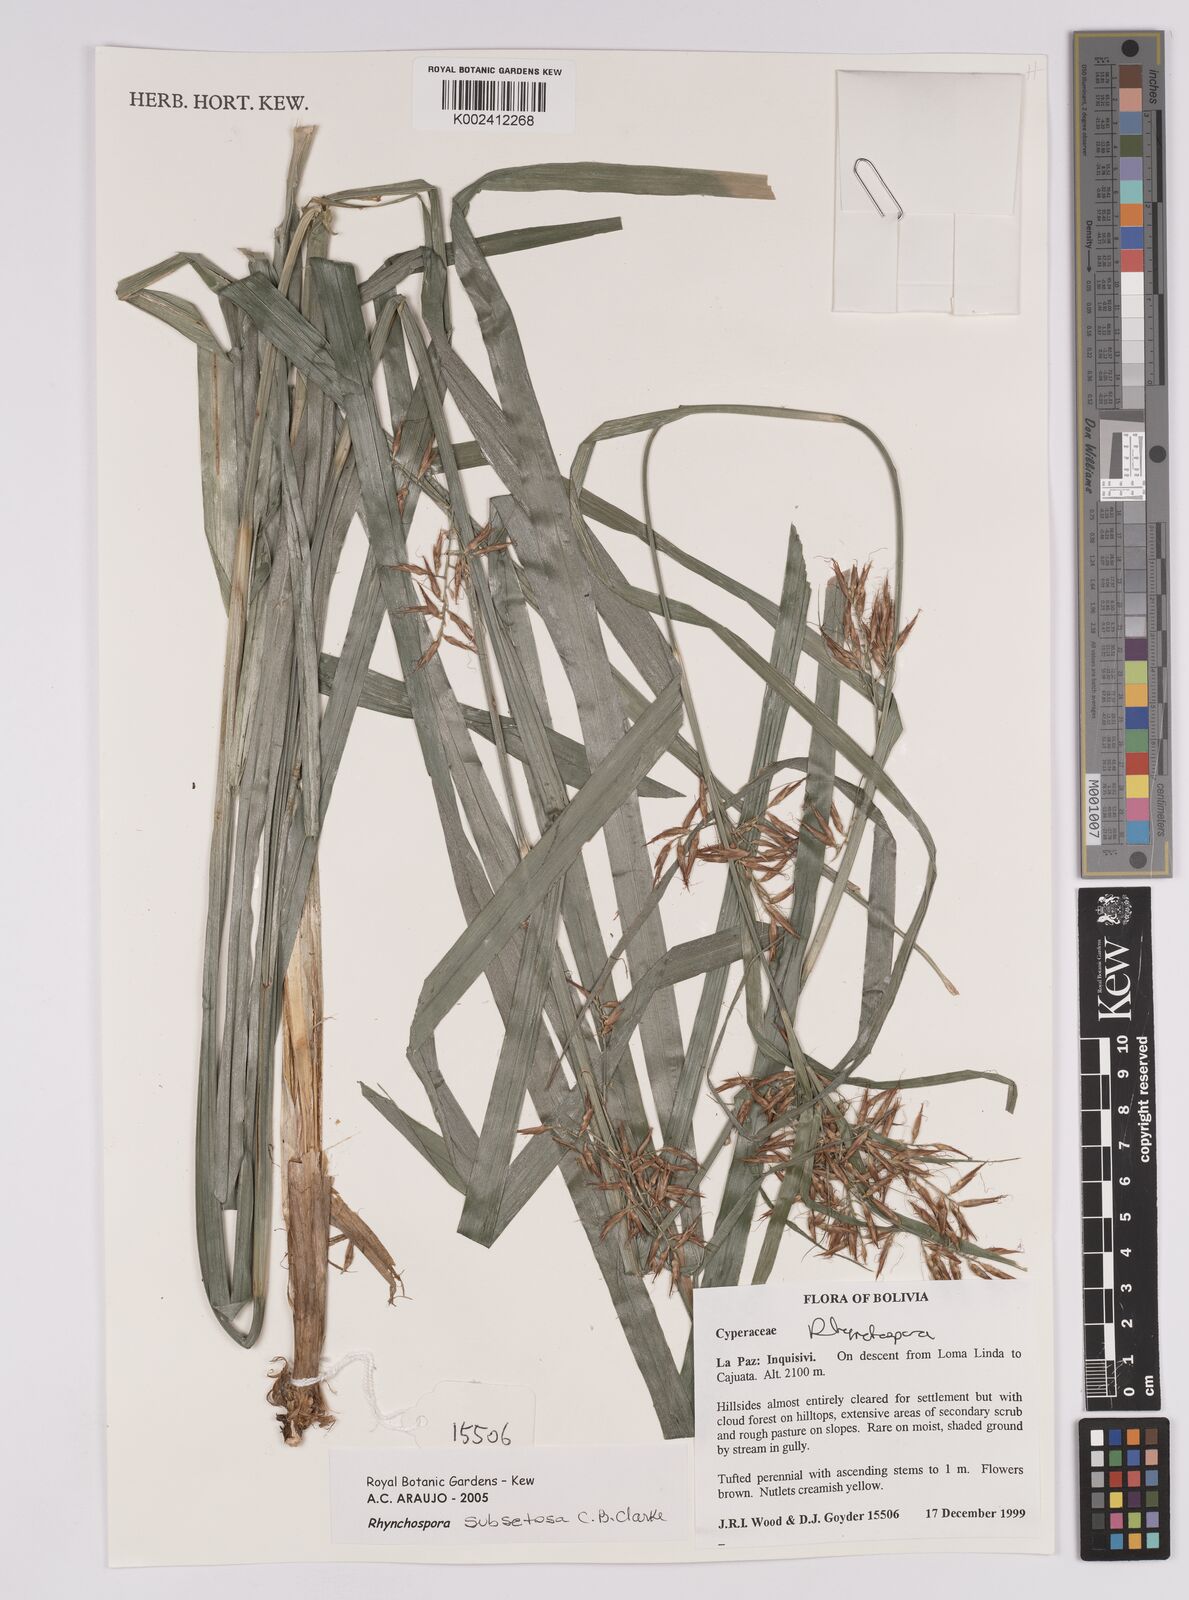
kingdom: Plantae
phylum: Tracheophyta
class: Liliopsida
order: Poales
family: Cyperaceae
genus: Rhynchospora
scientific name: Rhynchospora subsetosa
